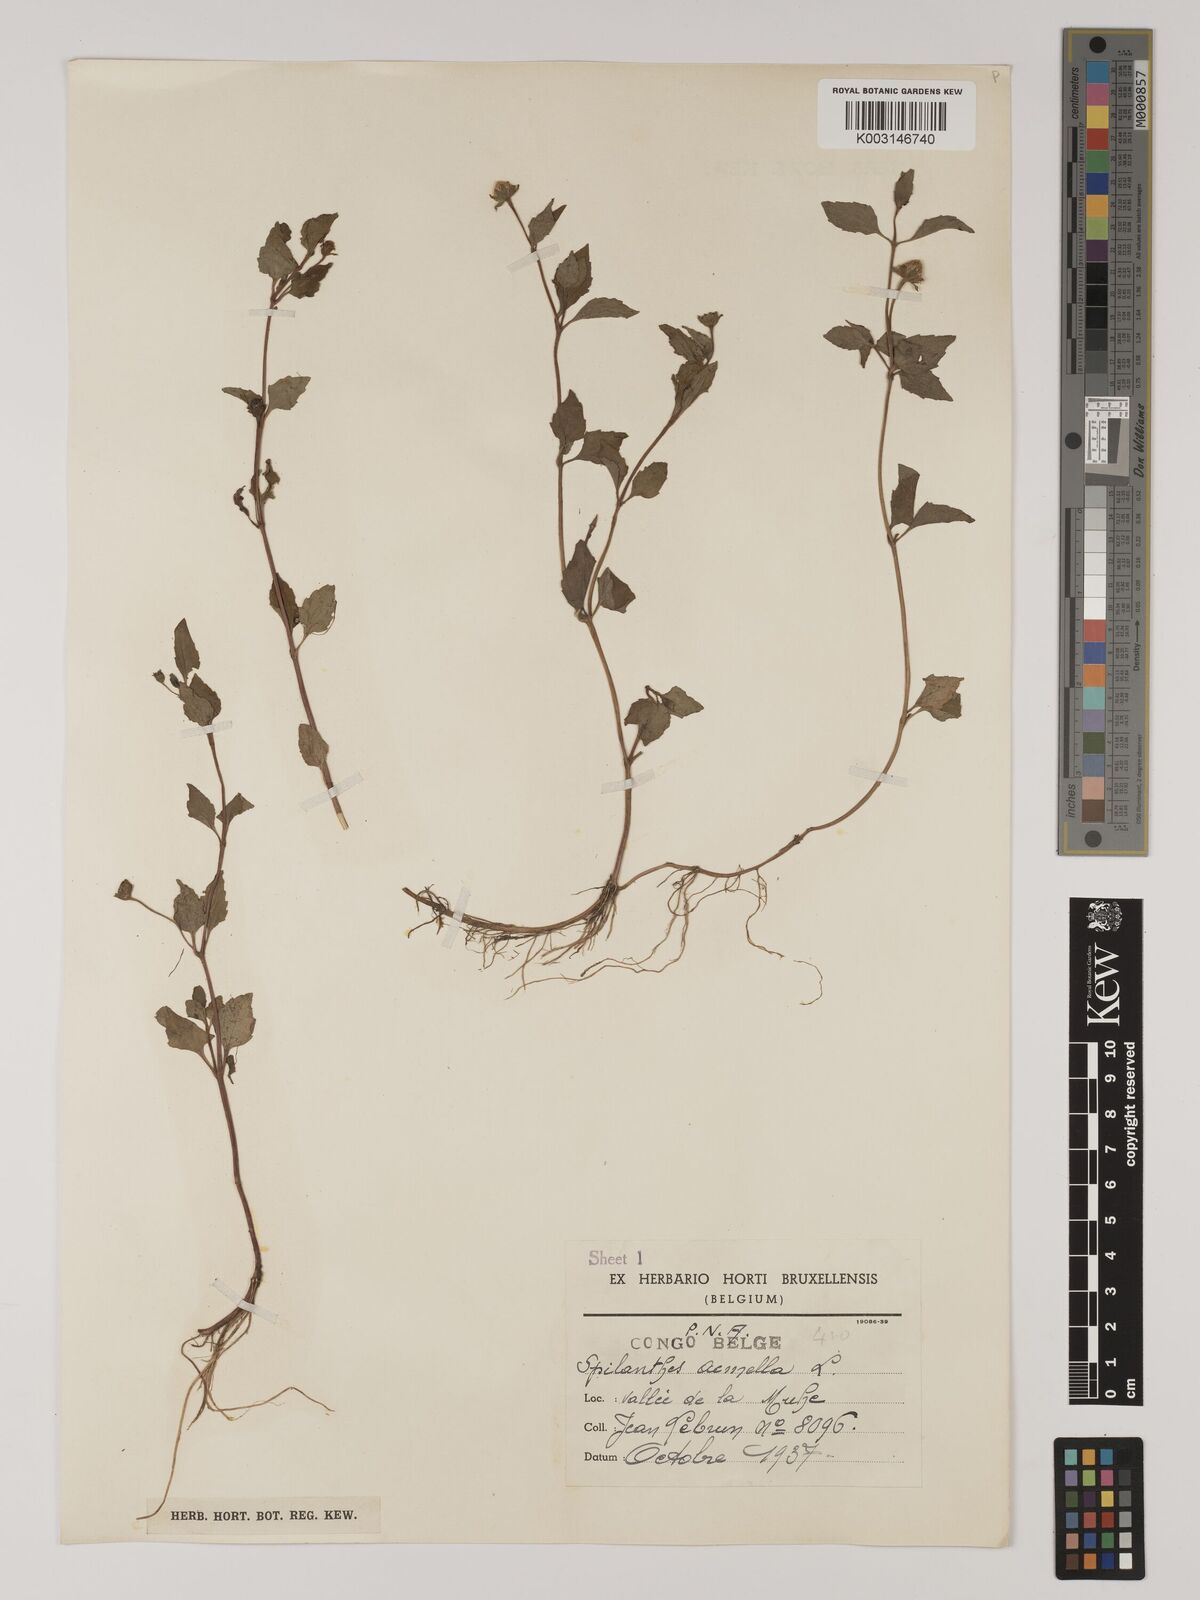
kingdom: Plantae
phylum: Tracheophyta
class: Magnoliopsida
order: Asterales
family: Asteraceae
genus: Blainvillea
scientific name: Blainvillea acmella
